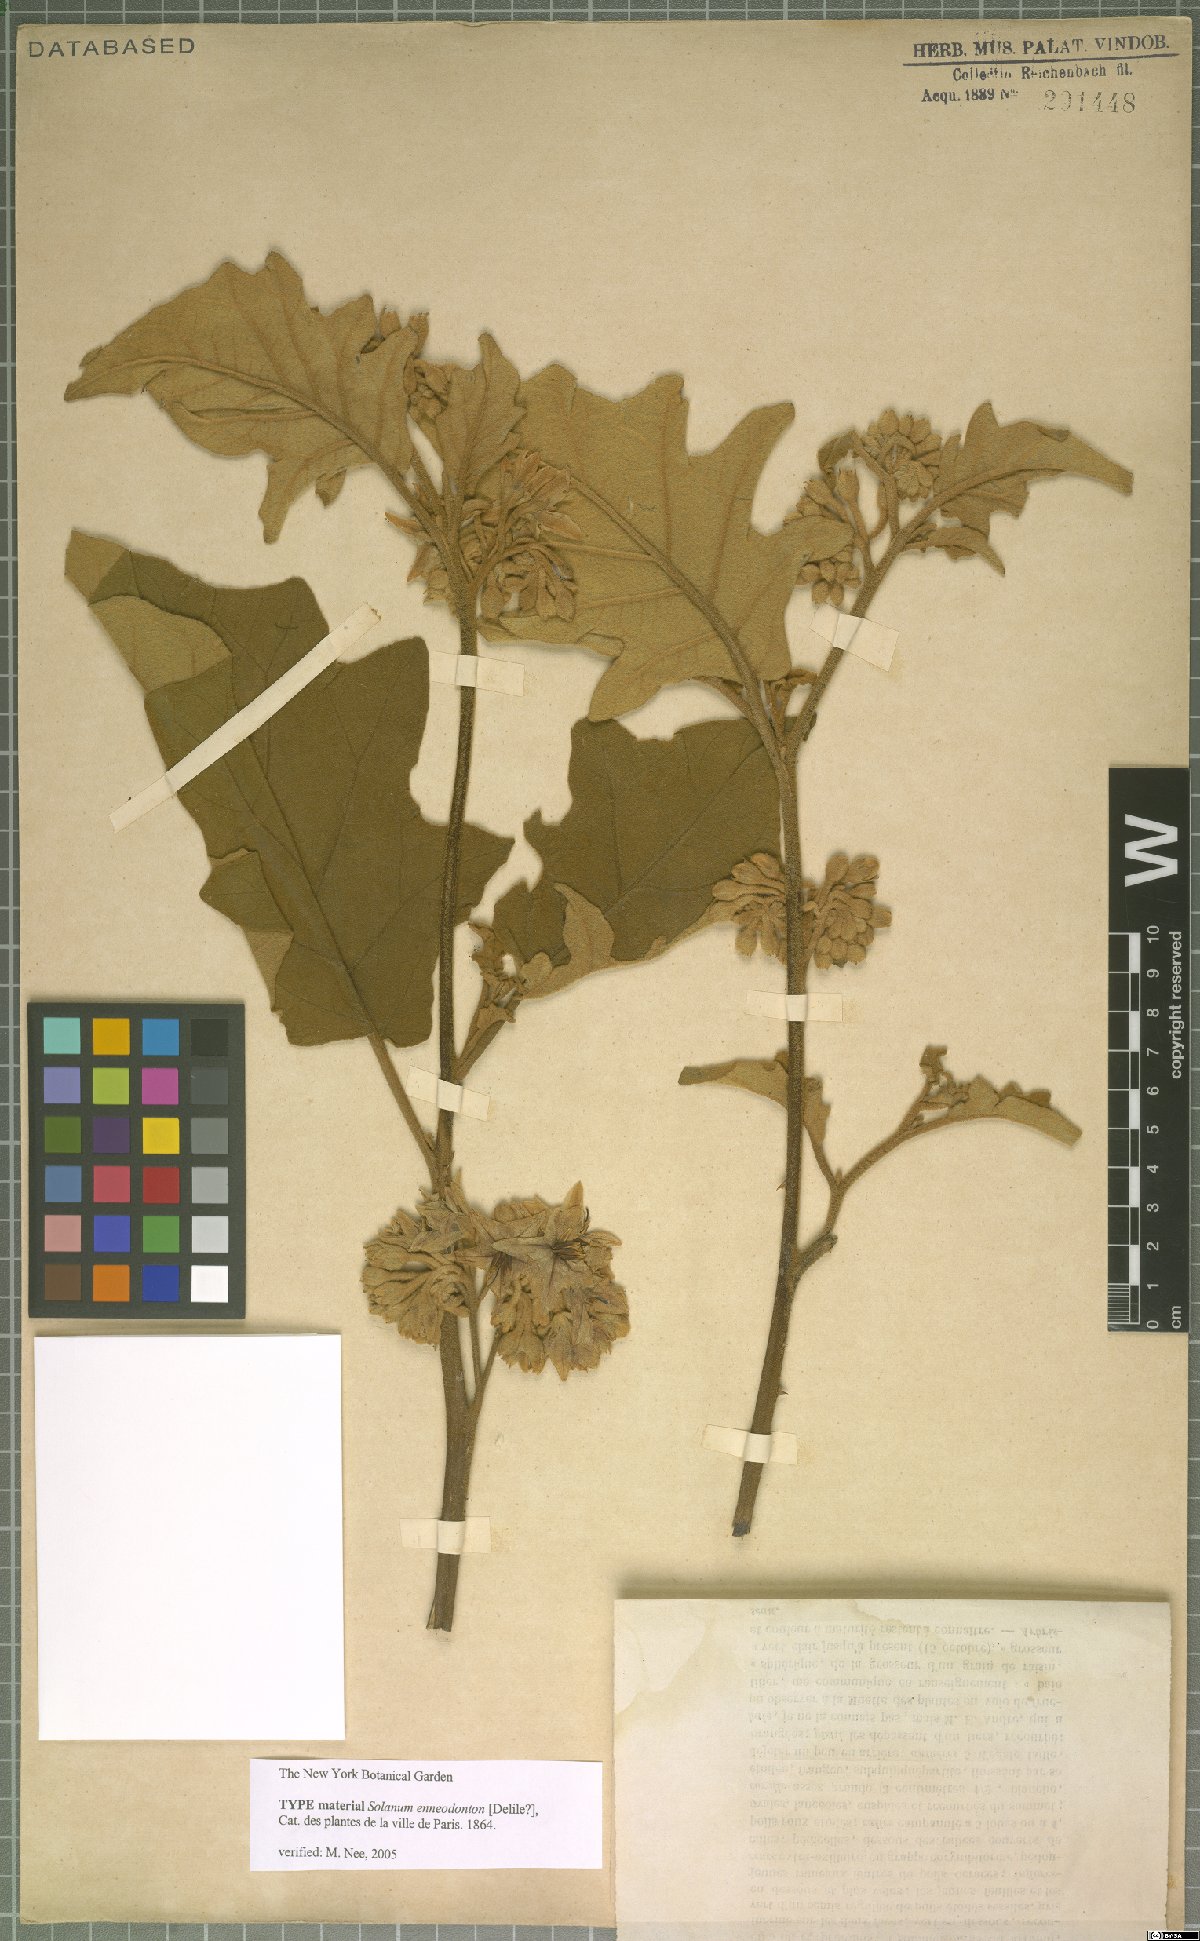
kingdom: Plantae
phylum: Tracheophyta
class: Magnoliopsida
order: Solanales
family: Solanaceae
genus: Solanum
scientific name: Solanum rude-pannum
